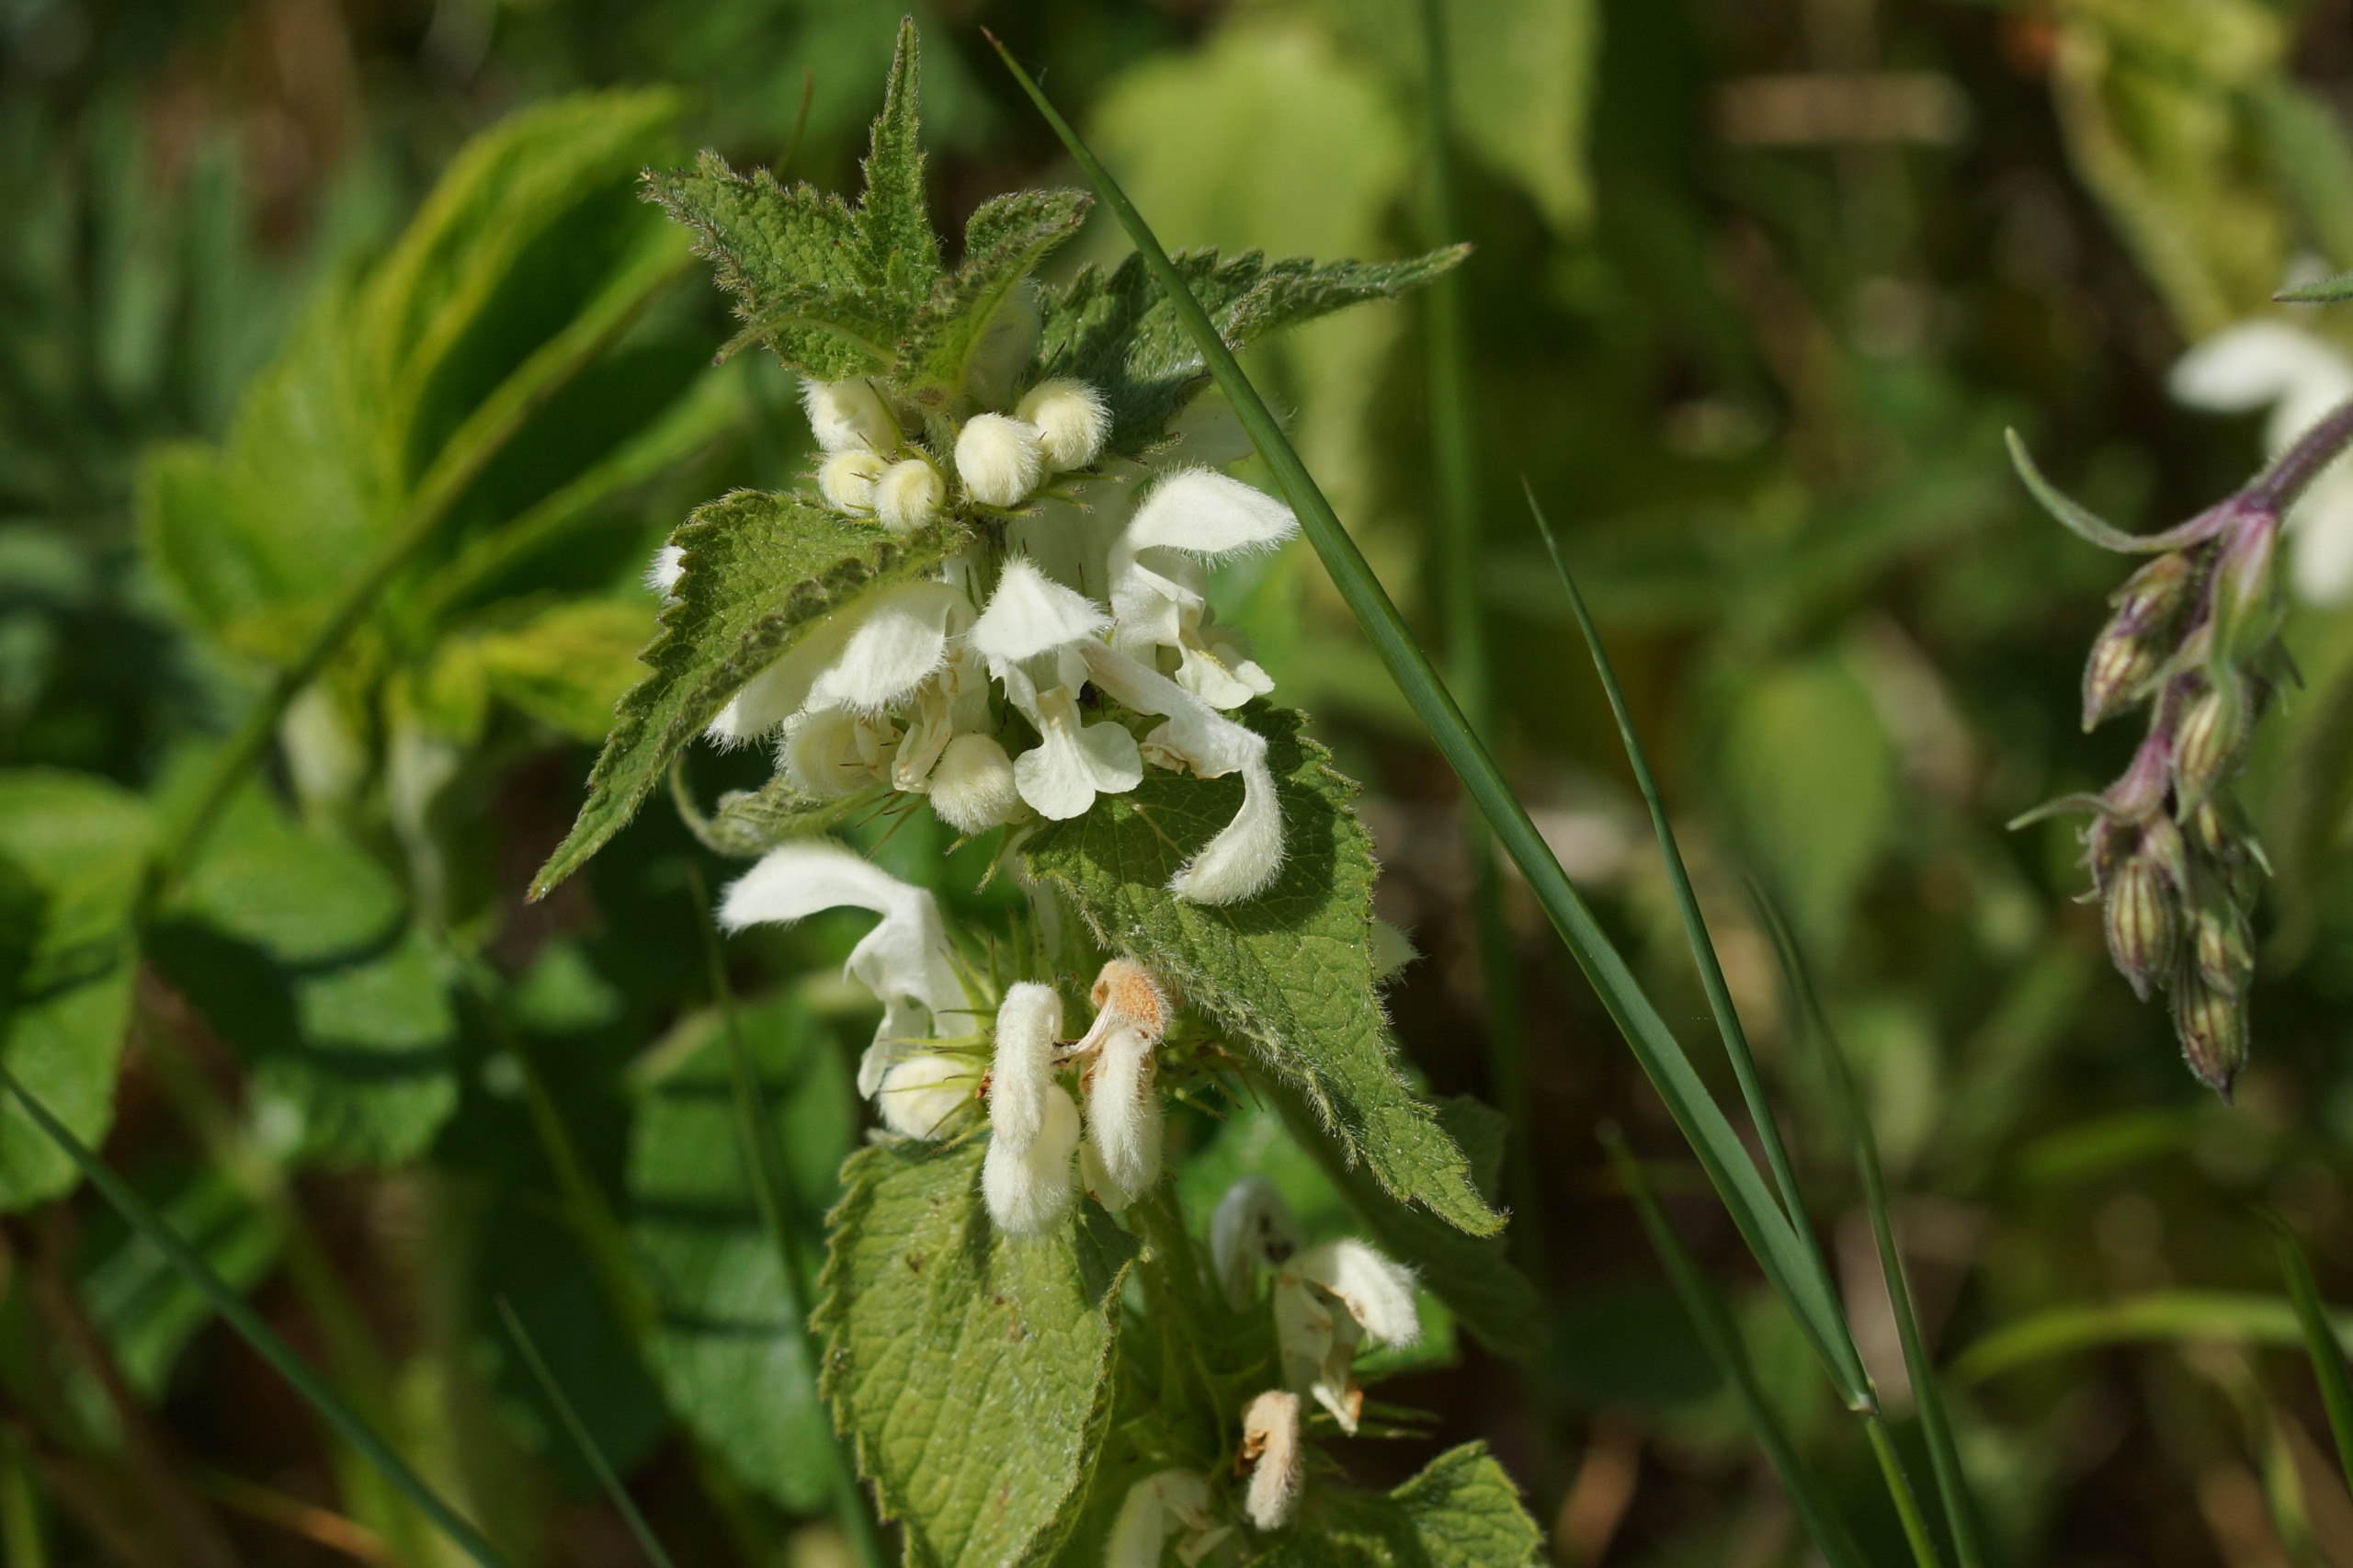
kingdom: Plantae
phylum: Tracheophyta
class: Magnoliopsida
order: Lamiales
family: Lamiaceae
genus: Lamium
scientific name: Lamium album
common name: Døvnælde
